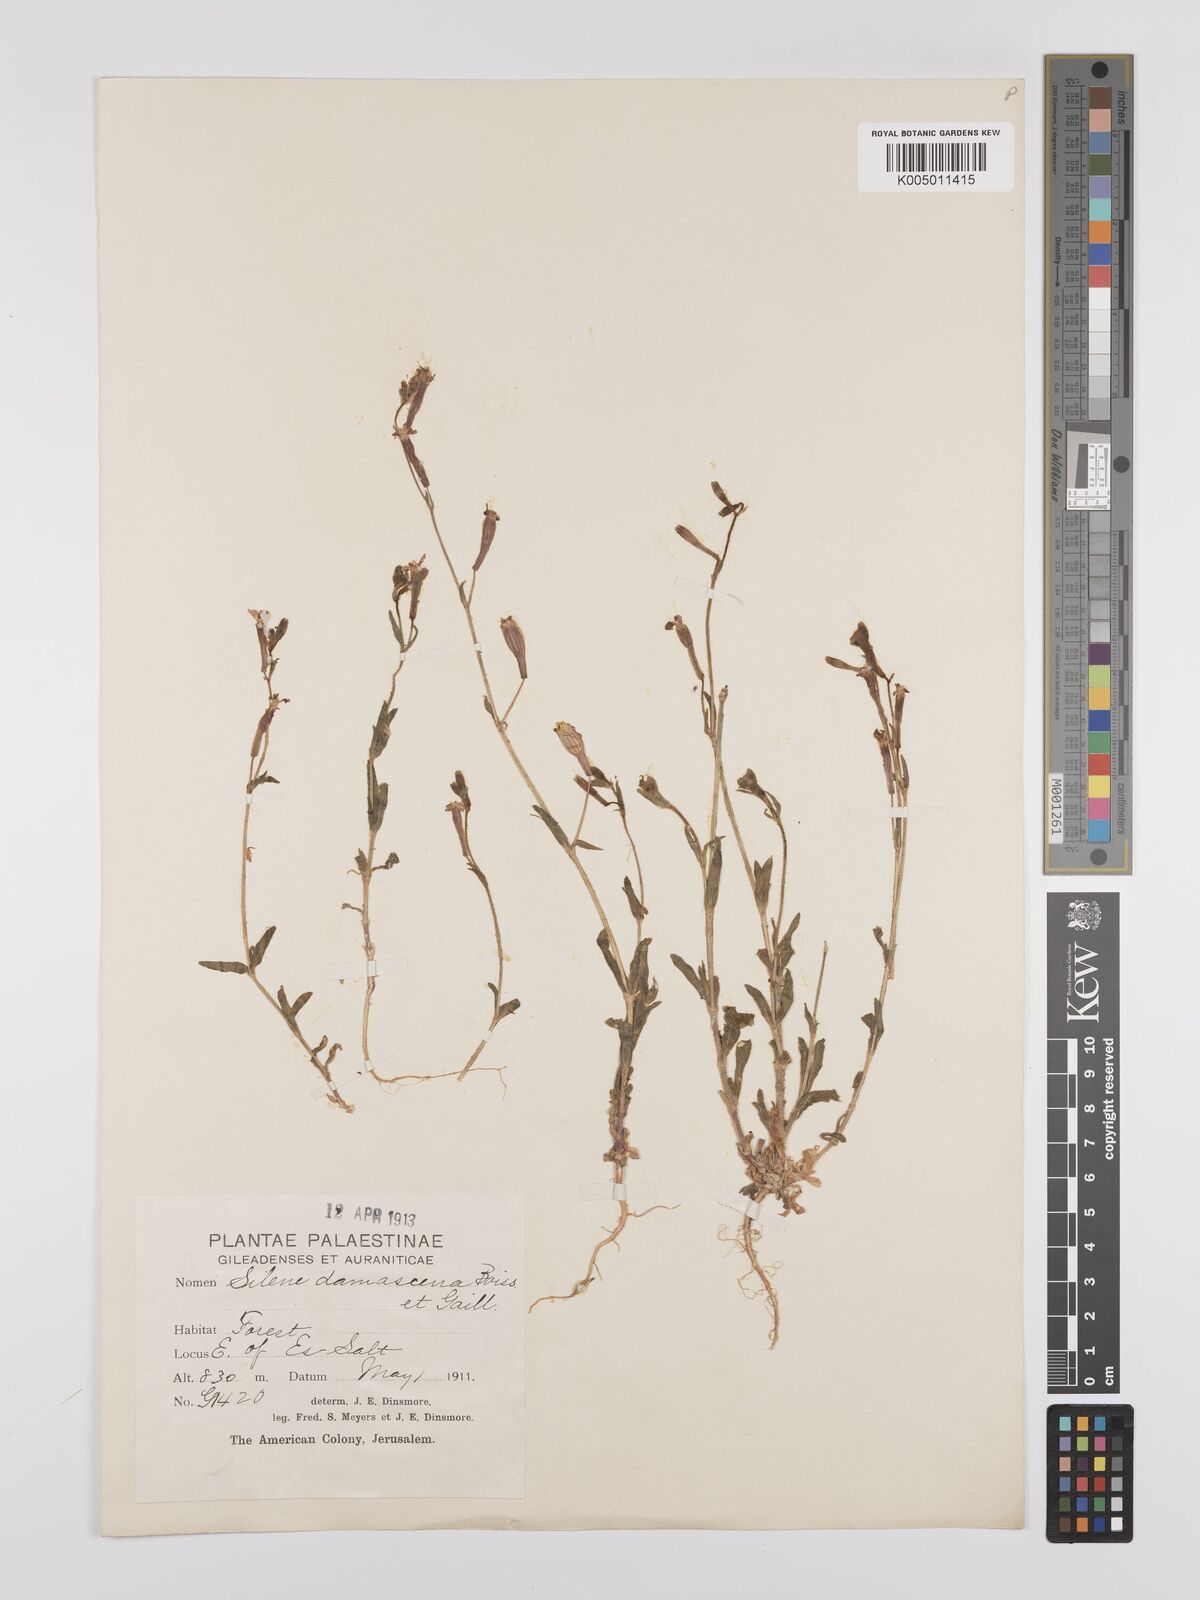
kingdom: Plantae
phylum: Tracheophyta
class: Magnoliopsida
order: Caryophyllales
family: Caryophyllaceae
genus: Silene
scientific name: Silene damascena
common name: Damascus catchfly
